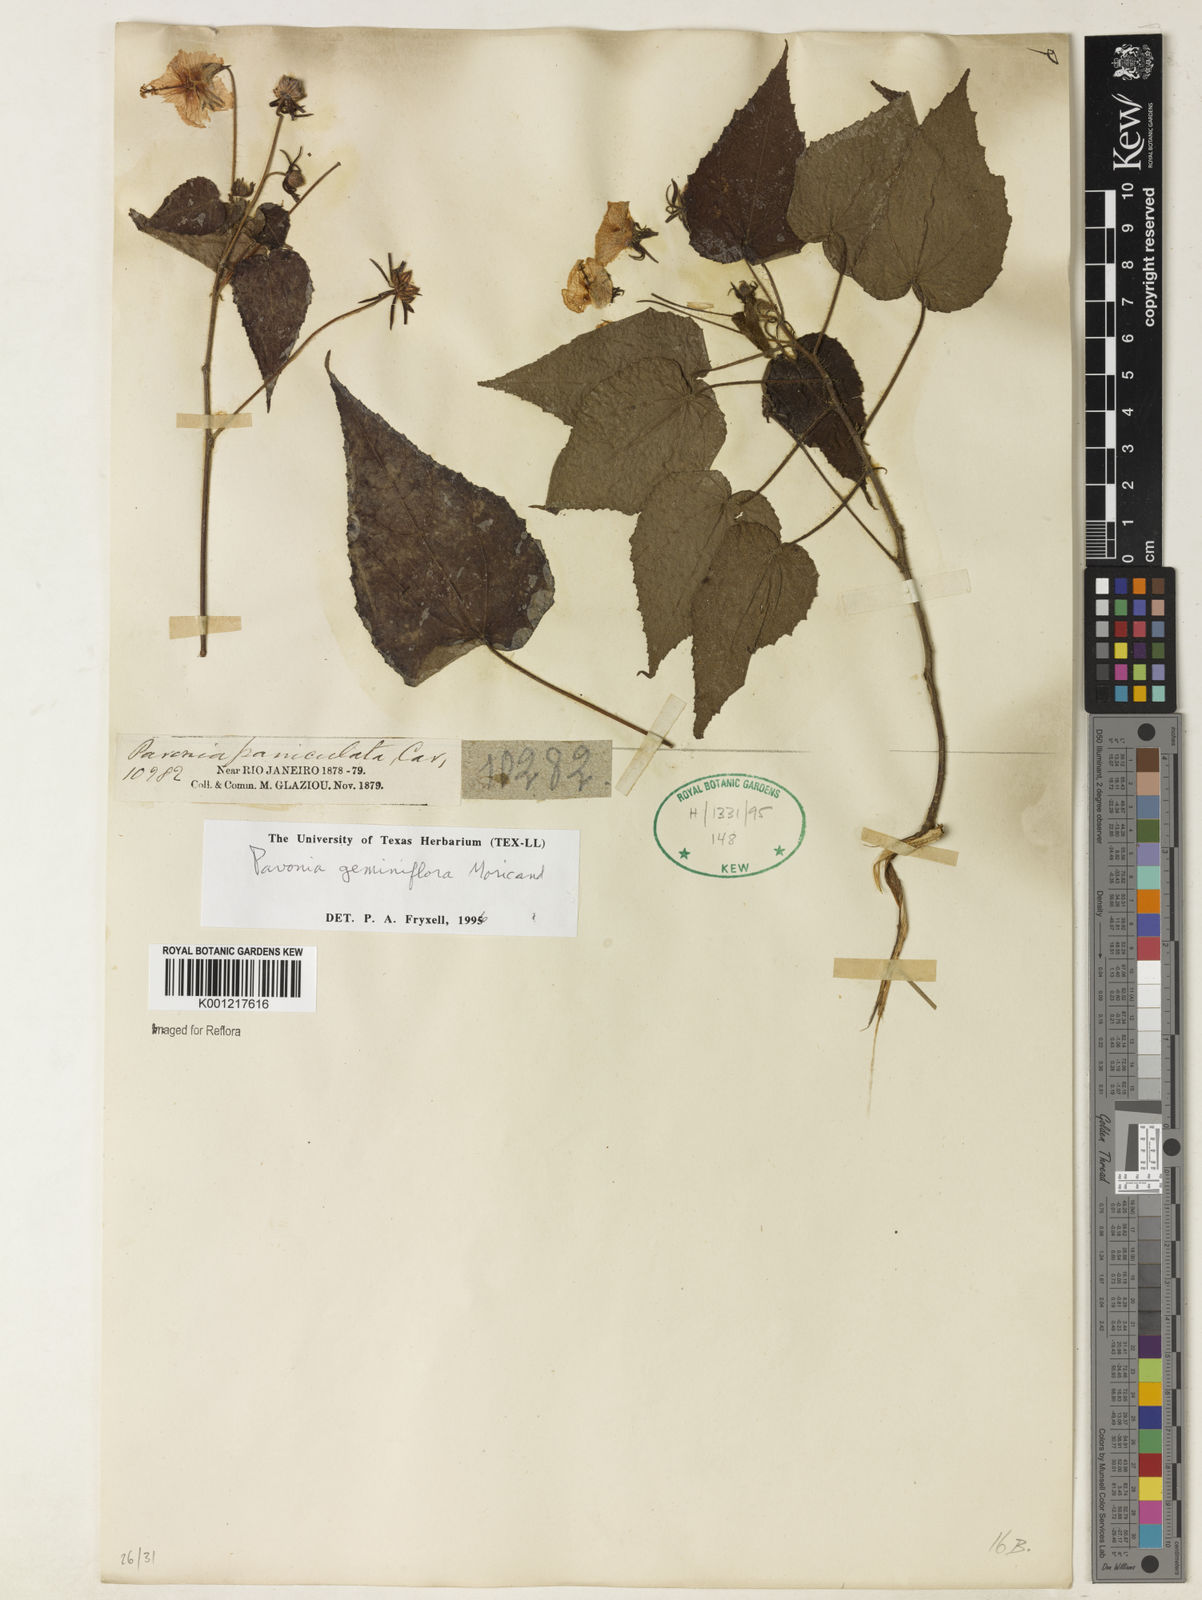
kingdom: Plantae
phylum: Tracheophyta
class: Magnoliopsida
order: Malvales
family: Malvaceae
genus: Pavonia
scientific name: Pavonia geminiflora
